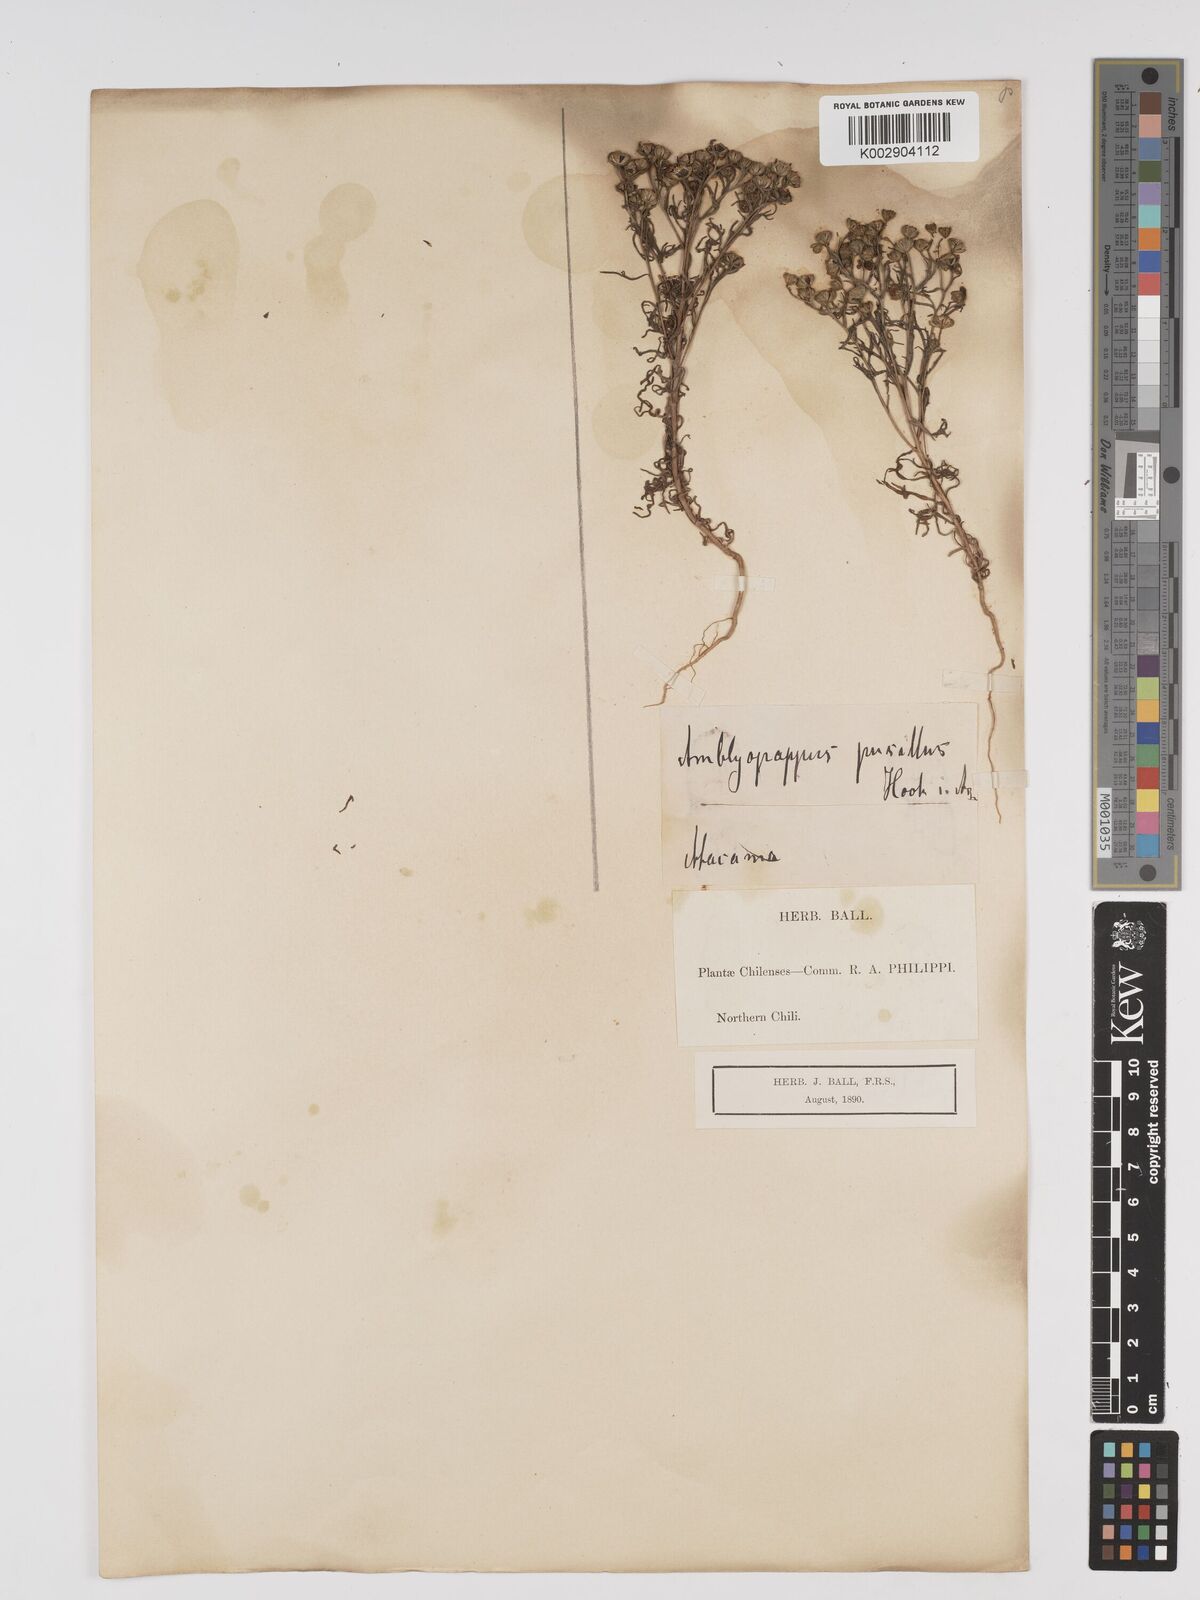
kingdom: Plantae
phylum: Tracheophyta
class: Magnoliopsida
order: Asterales
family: Asteraceae
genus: Amblyopappus
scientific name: Amblyopappus pusillus
